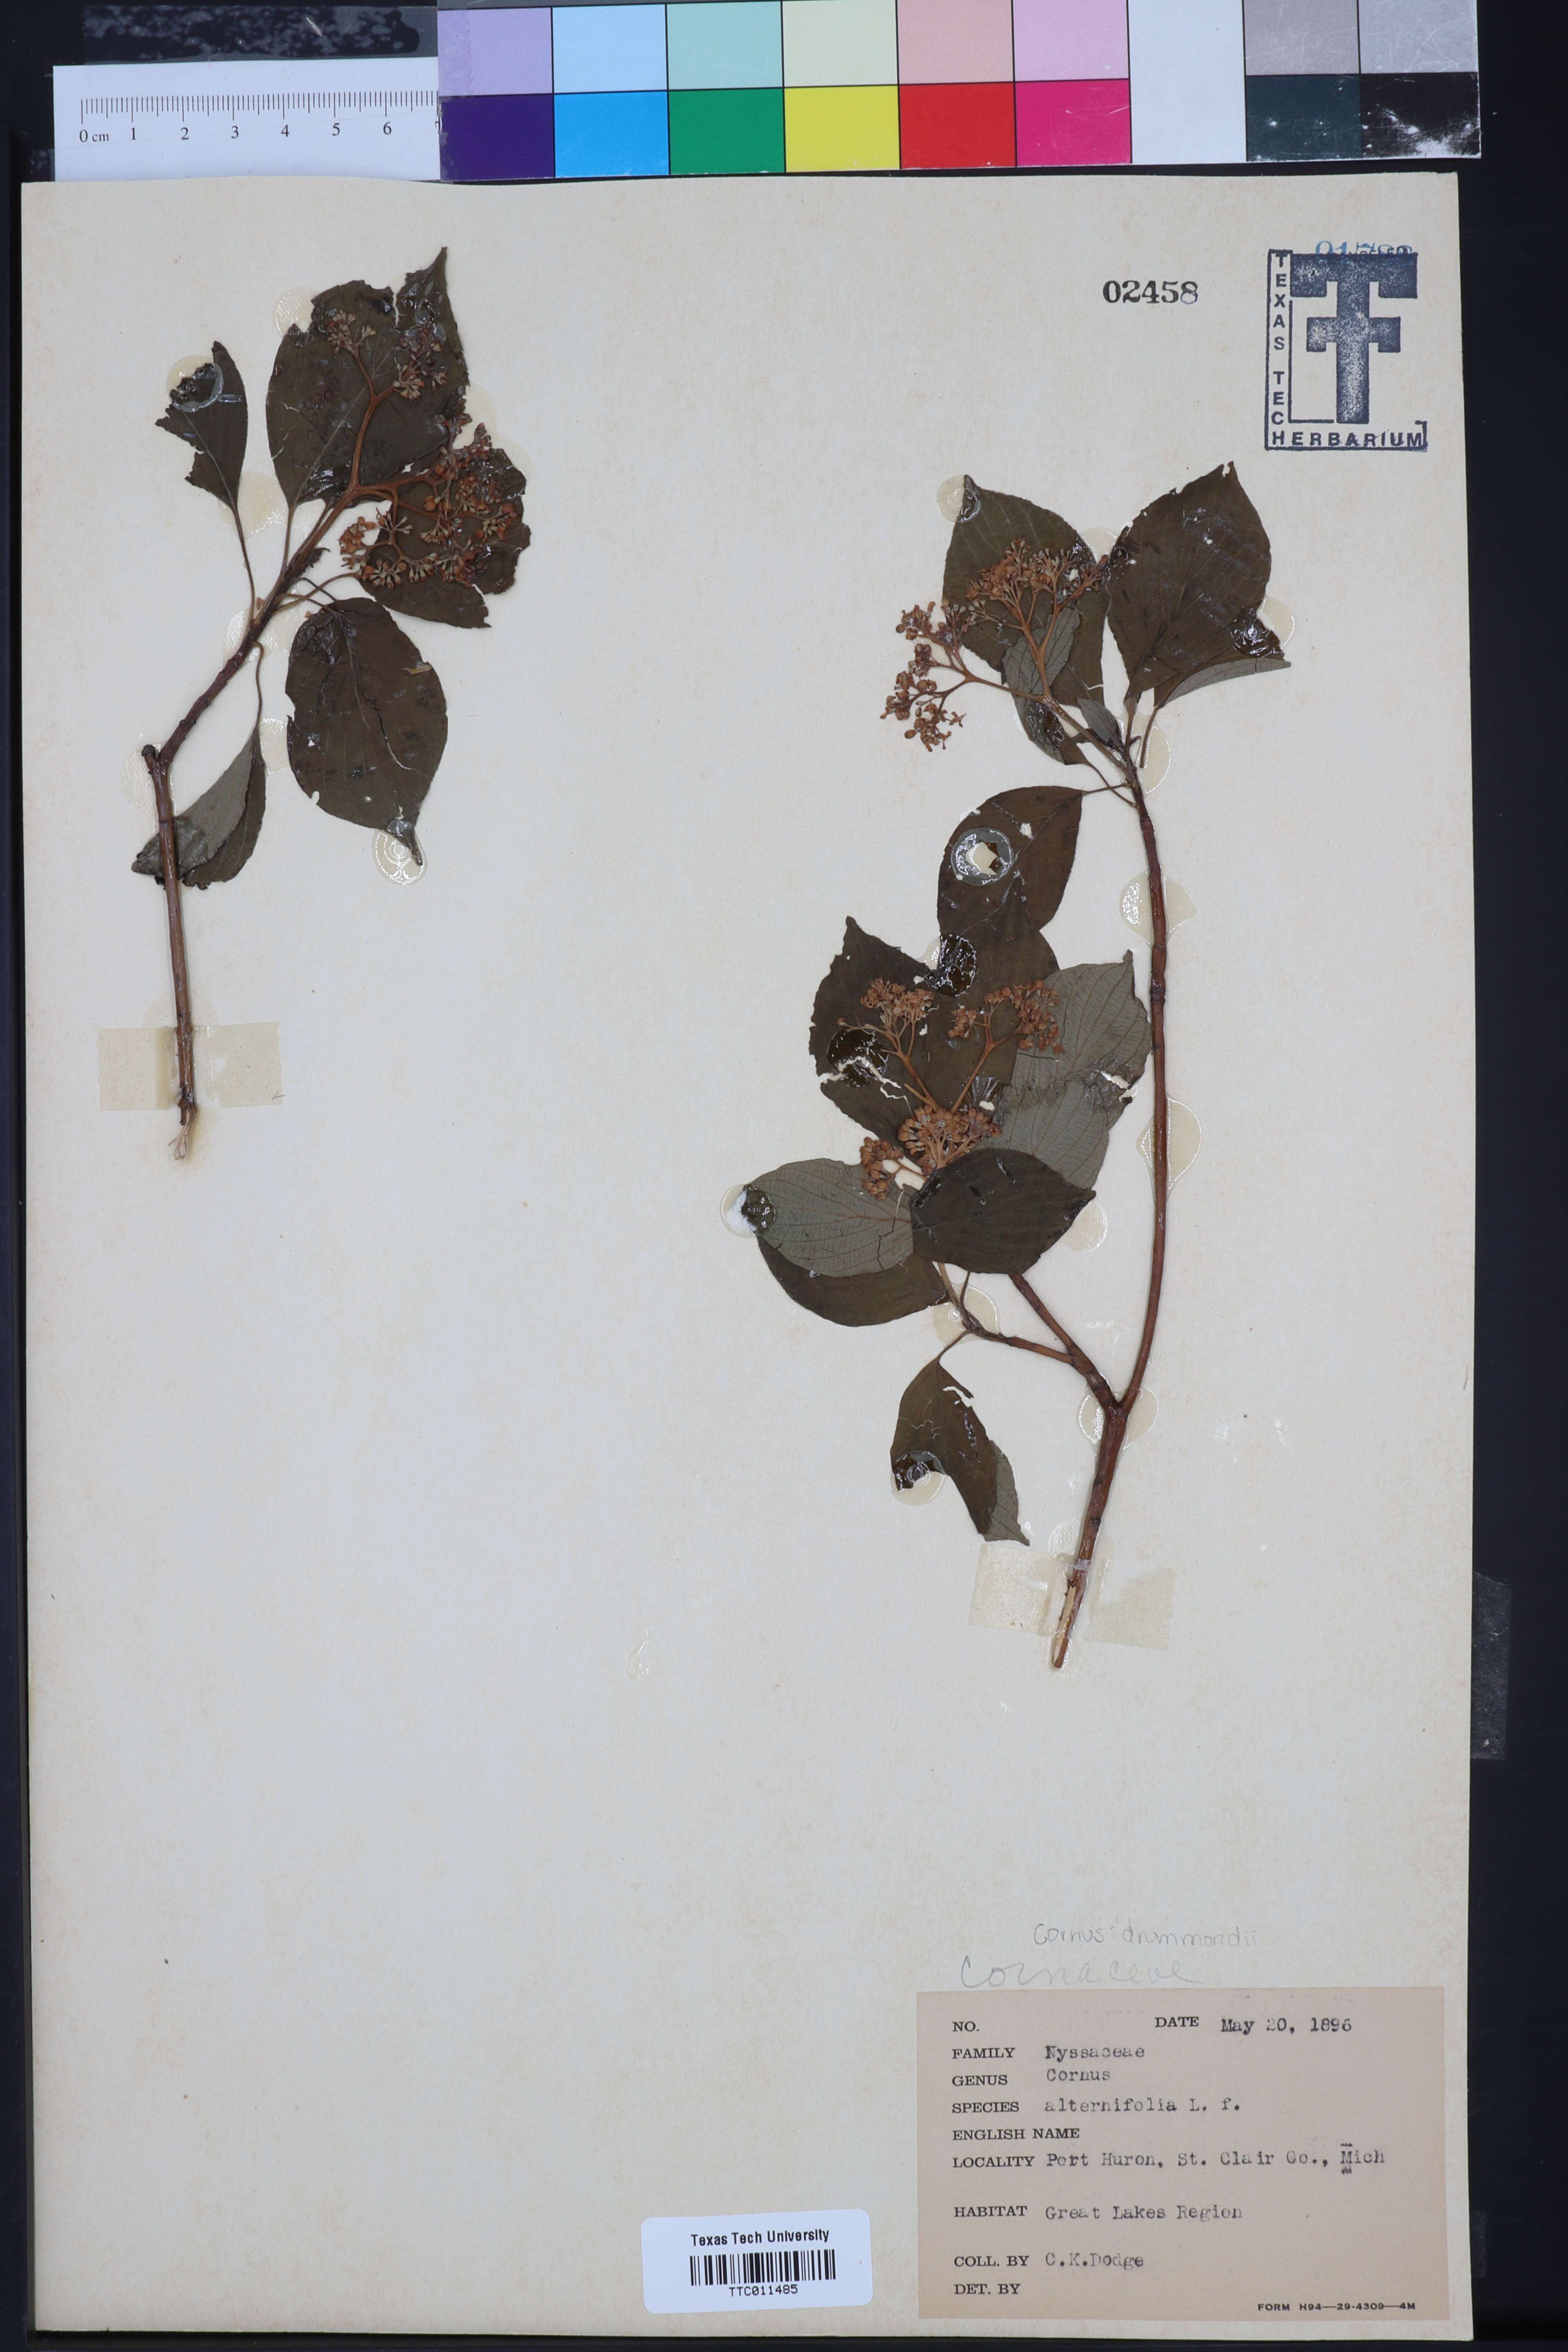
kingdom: Plantae
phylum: Tracheophyta
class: Magnoliopsida
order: Cornales
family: Cornaceae
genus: Cornus
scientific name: Cornus rugosa
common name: Round-leaf dogwood
